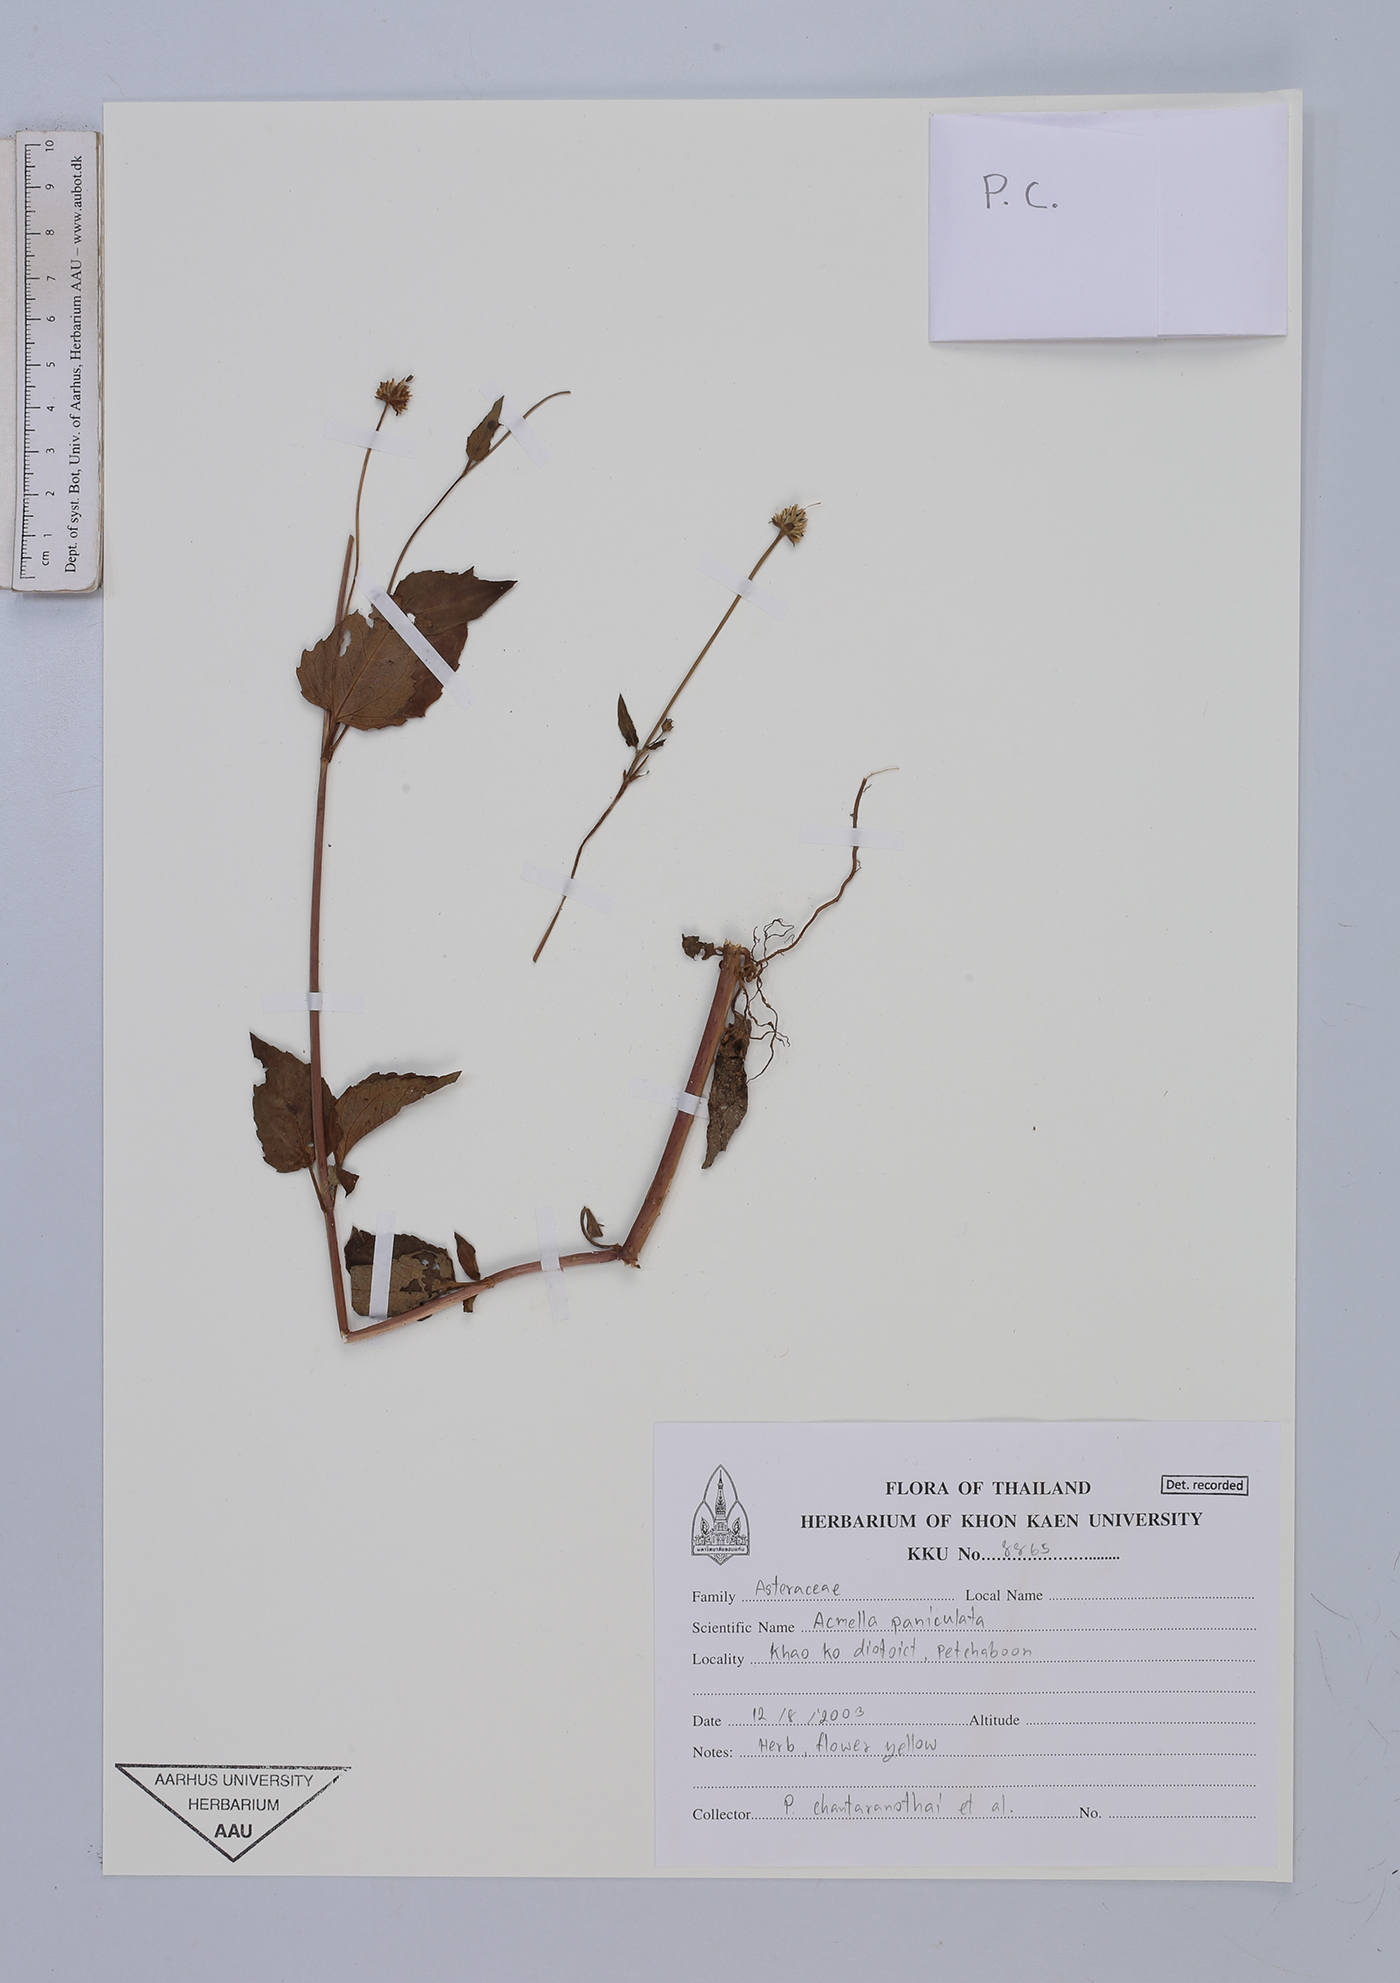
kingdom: Plantae
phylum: Tracheophyta
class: Magnoliopsida
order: Asterales
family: Asteraceae
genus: Acmella
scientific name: Acmella paniculata
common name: Panicled spot flower
